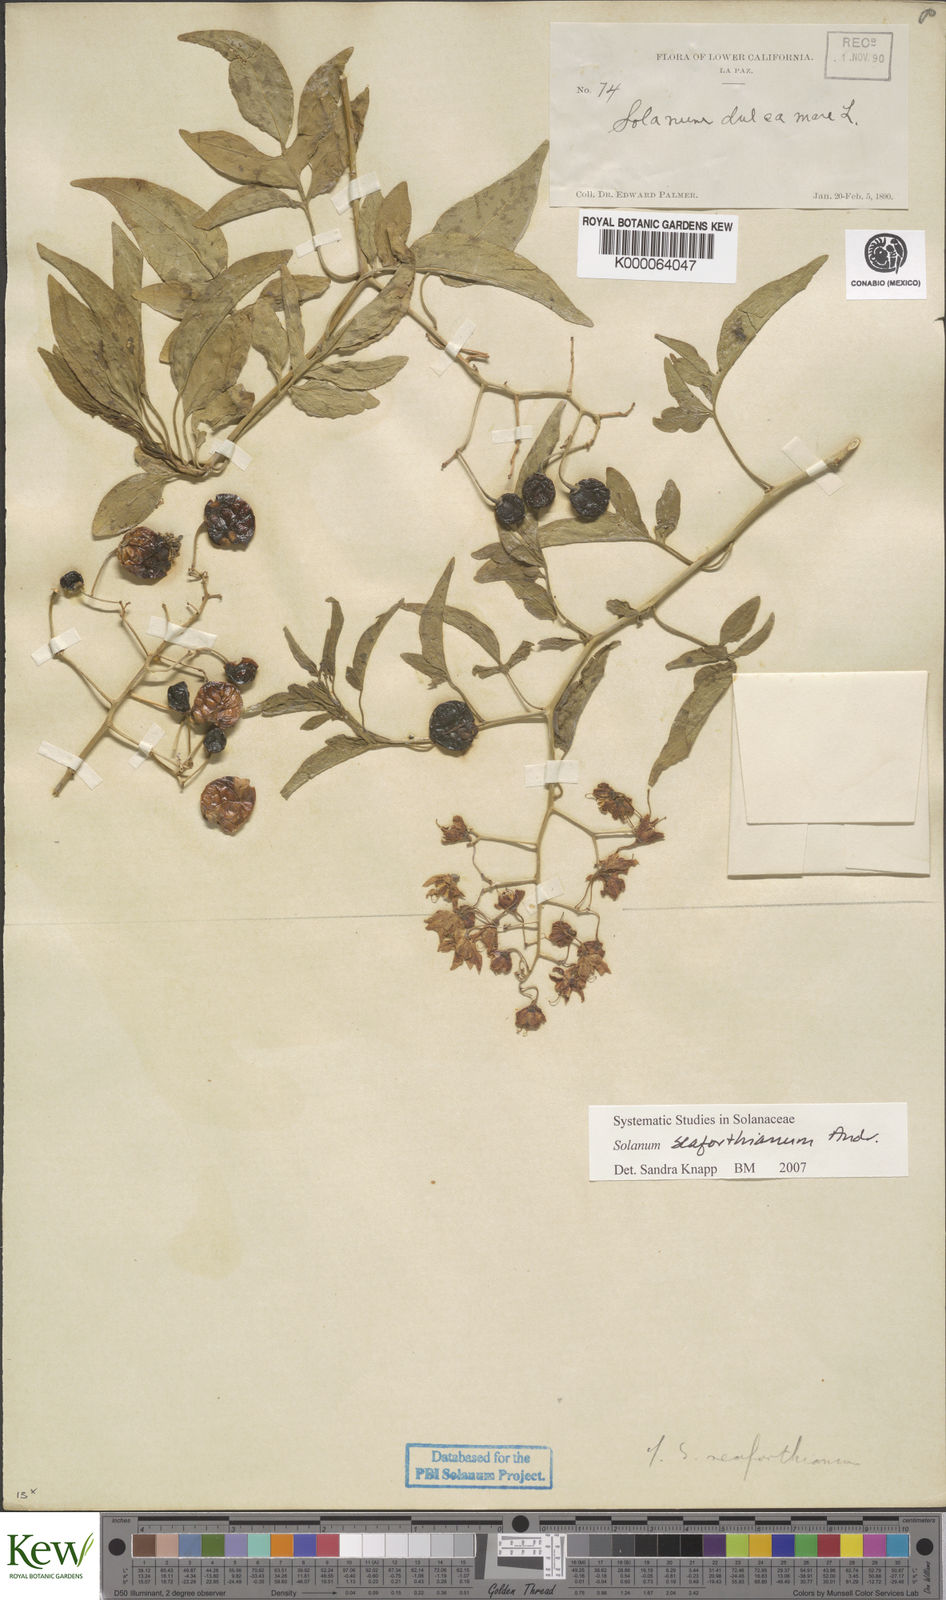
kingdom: Plantae
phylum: Tracheophyta
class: Magnoliopsida
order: Solanales
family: Solanaceae
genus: Solanum
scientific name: Solanum
